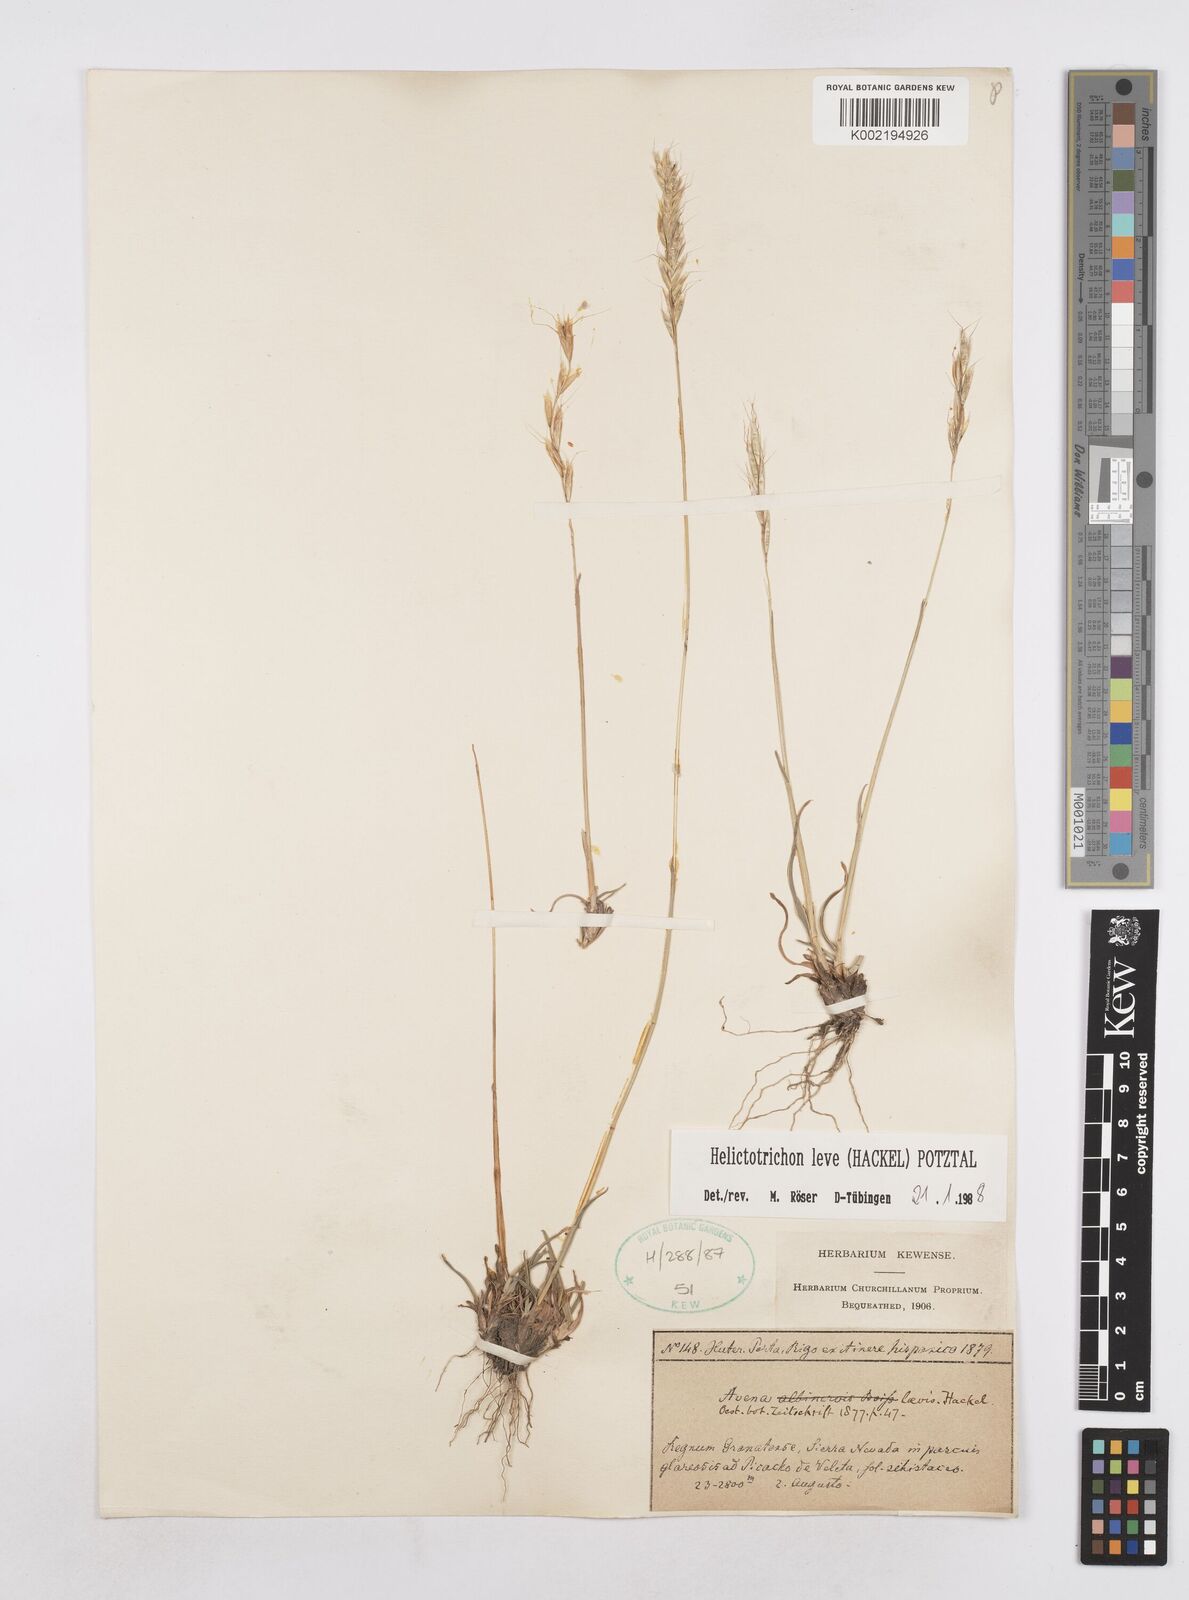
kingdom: Plantae
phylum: Tracheophyta
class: Liliopsida
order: Poales
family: Poaceae
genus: Helictochloa
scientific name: Helictochloa levis
